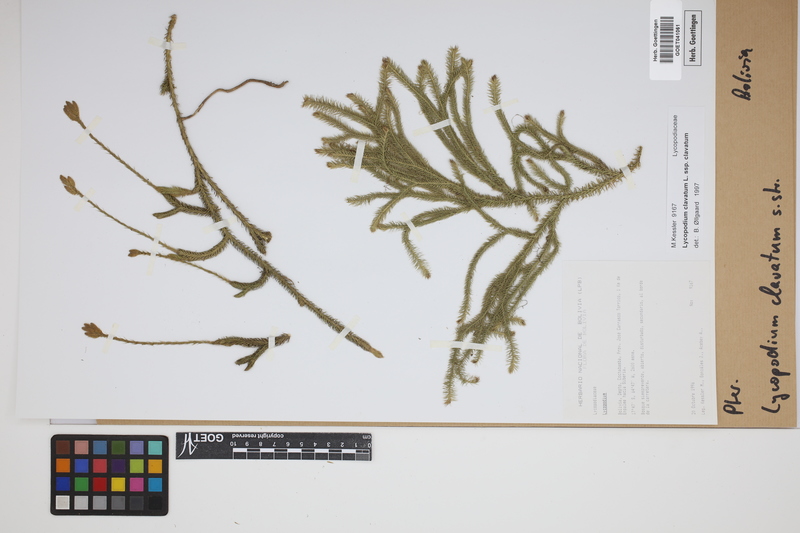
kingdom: Plantae
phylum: Tracheophyta
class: Lycopodiopsida
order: Lycopodiales
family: Lycopodiaceae
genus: Lycopodium
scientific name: Lycopodium clavatum
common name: Stag's-horn clubmoss
